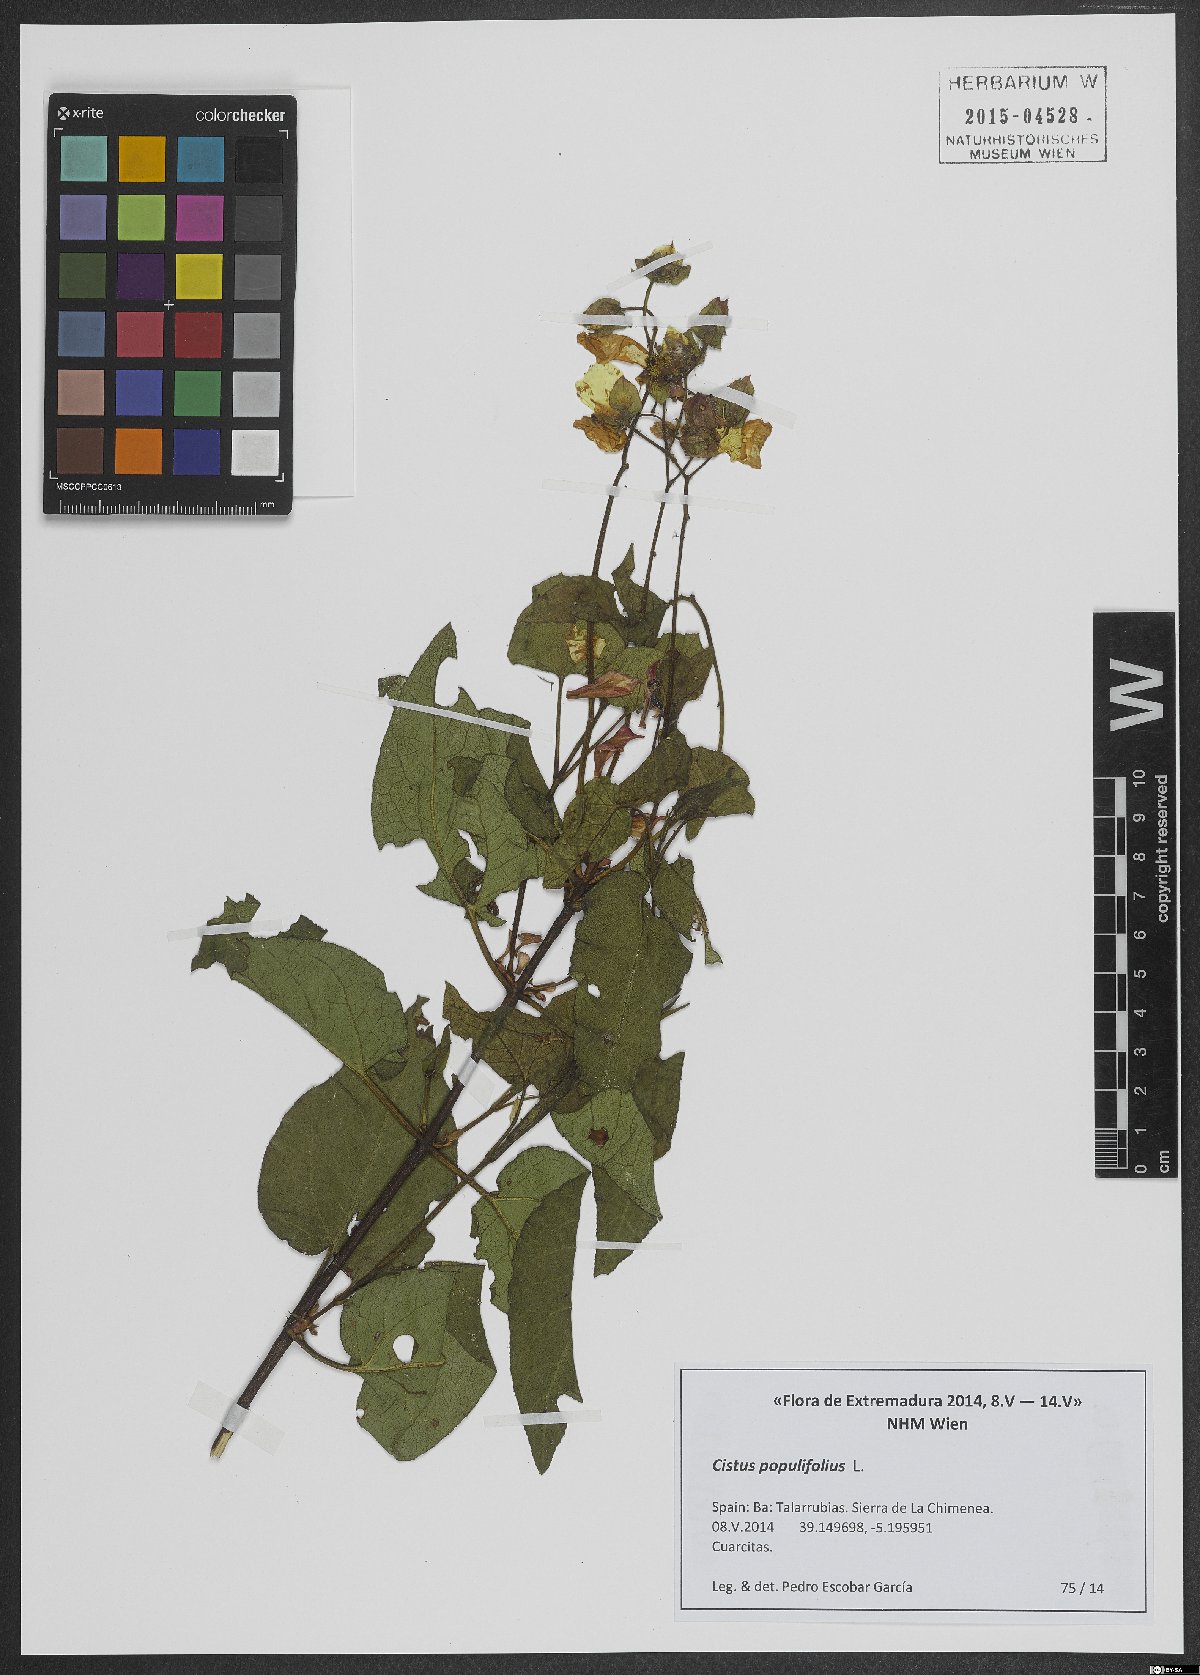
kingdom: Plantae
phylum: Tracheophyta
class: Magnoliopsida
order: Malvales
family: Cistaceae
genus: Cistus
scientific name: Cistus populifolius
